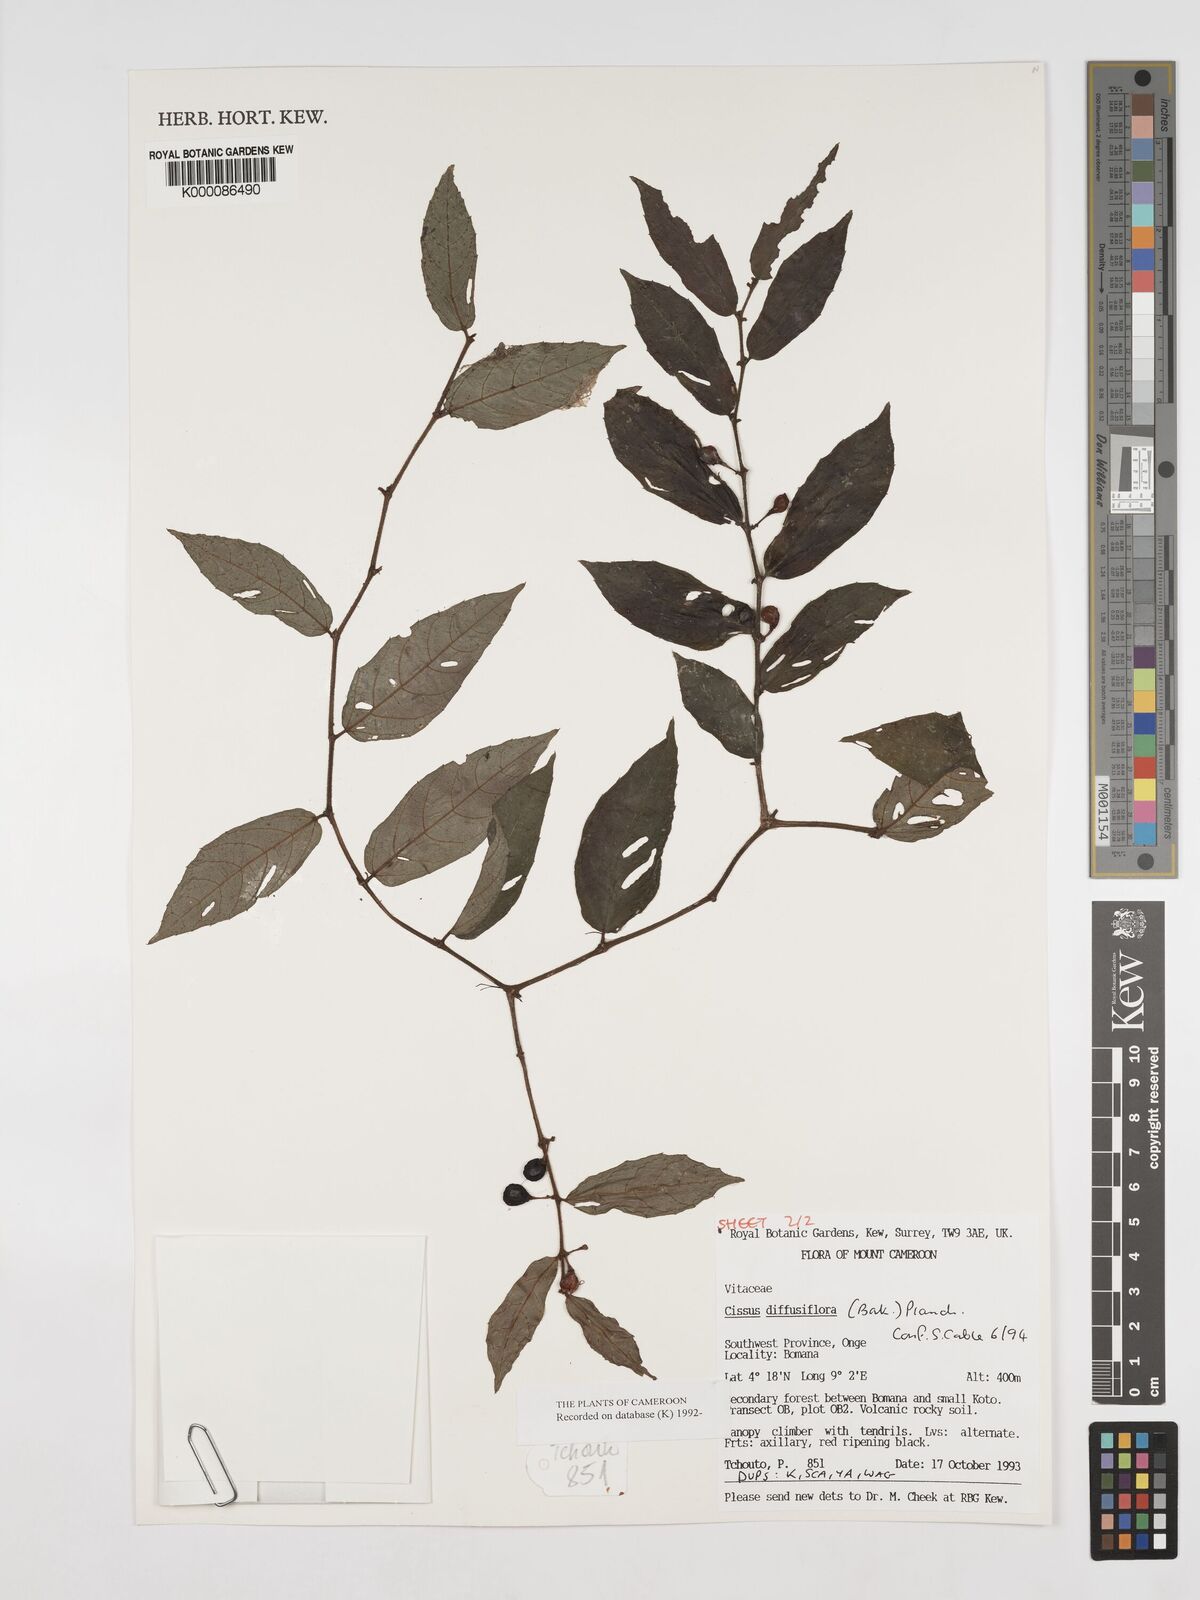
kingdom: Plantae
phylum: Tracheophyta
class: Magnoliopsida
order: Vitales
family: Vitaceae
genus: Cissus
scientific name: Cissus diffusiflora
